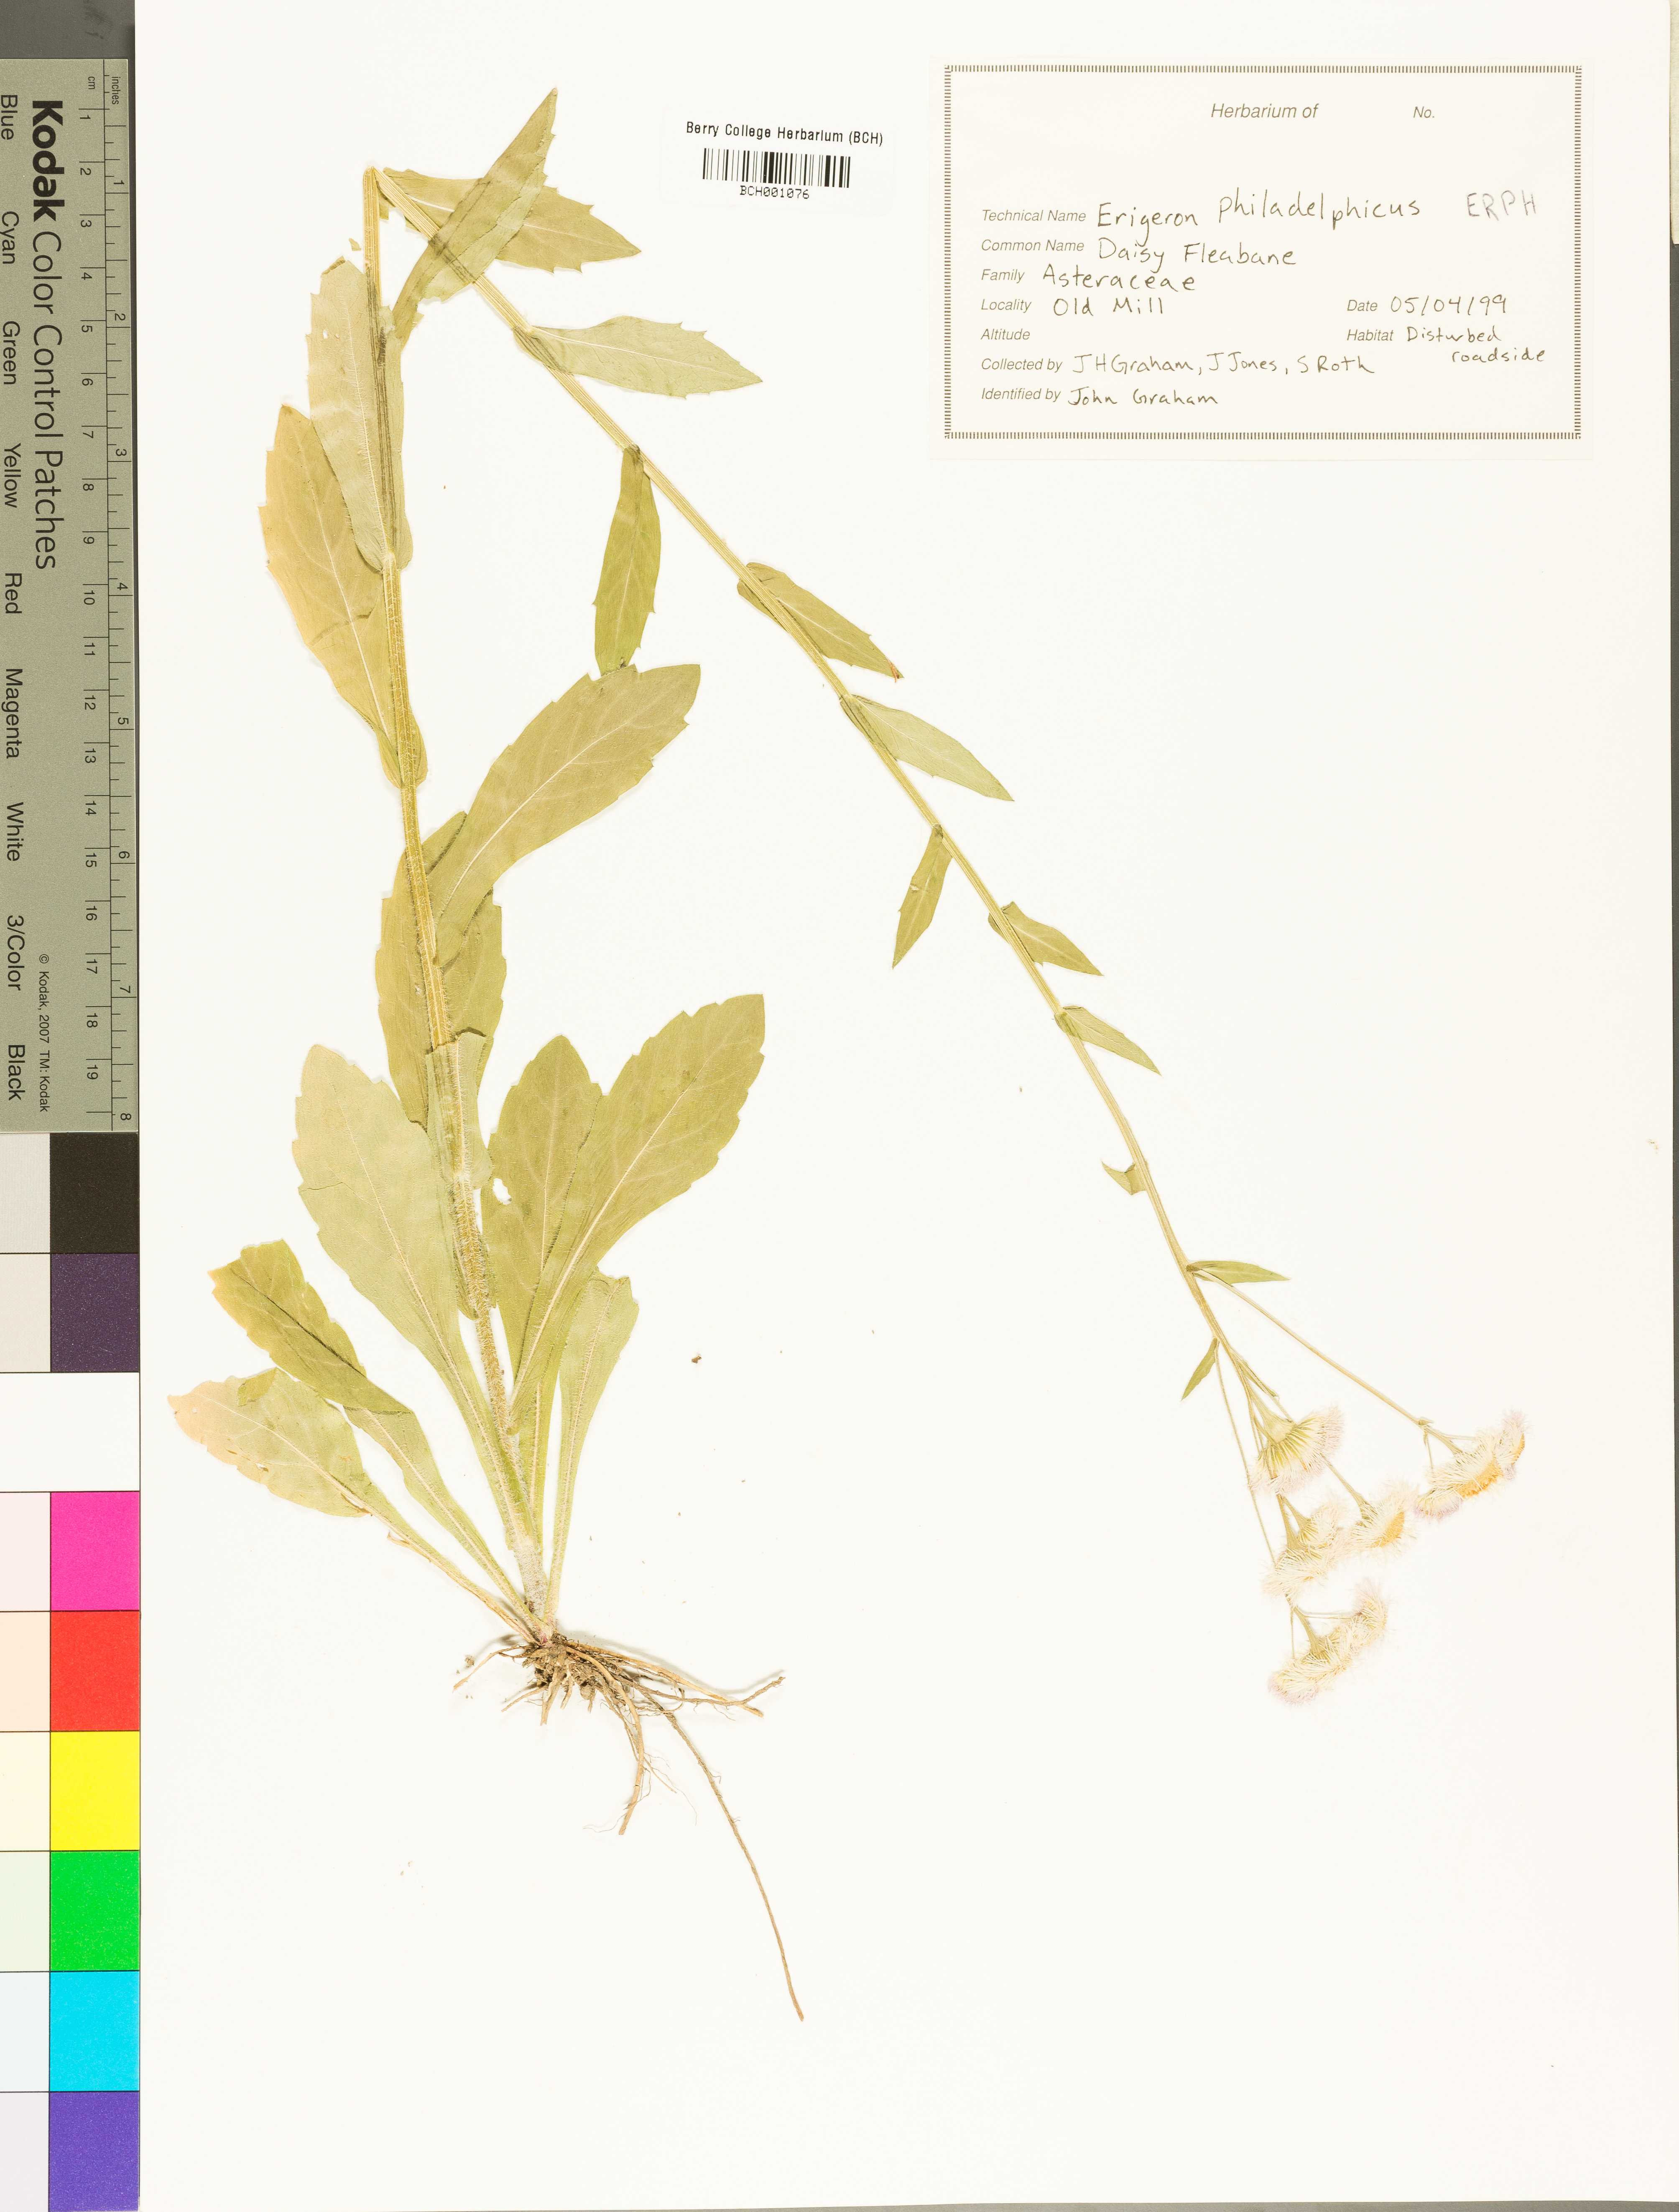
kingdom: Plantae
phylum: Tracheophyta
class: Magnoliopsida
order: Asterales
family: Asteraceae
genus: Erigeron
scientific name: Erigeron philadelphicus
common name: Robin's-plantain
